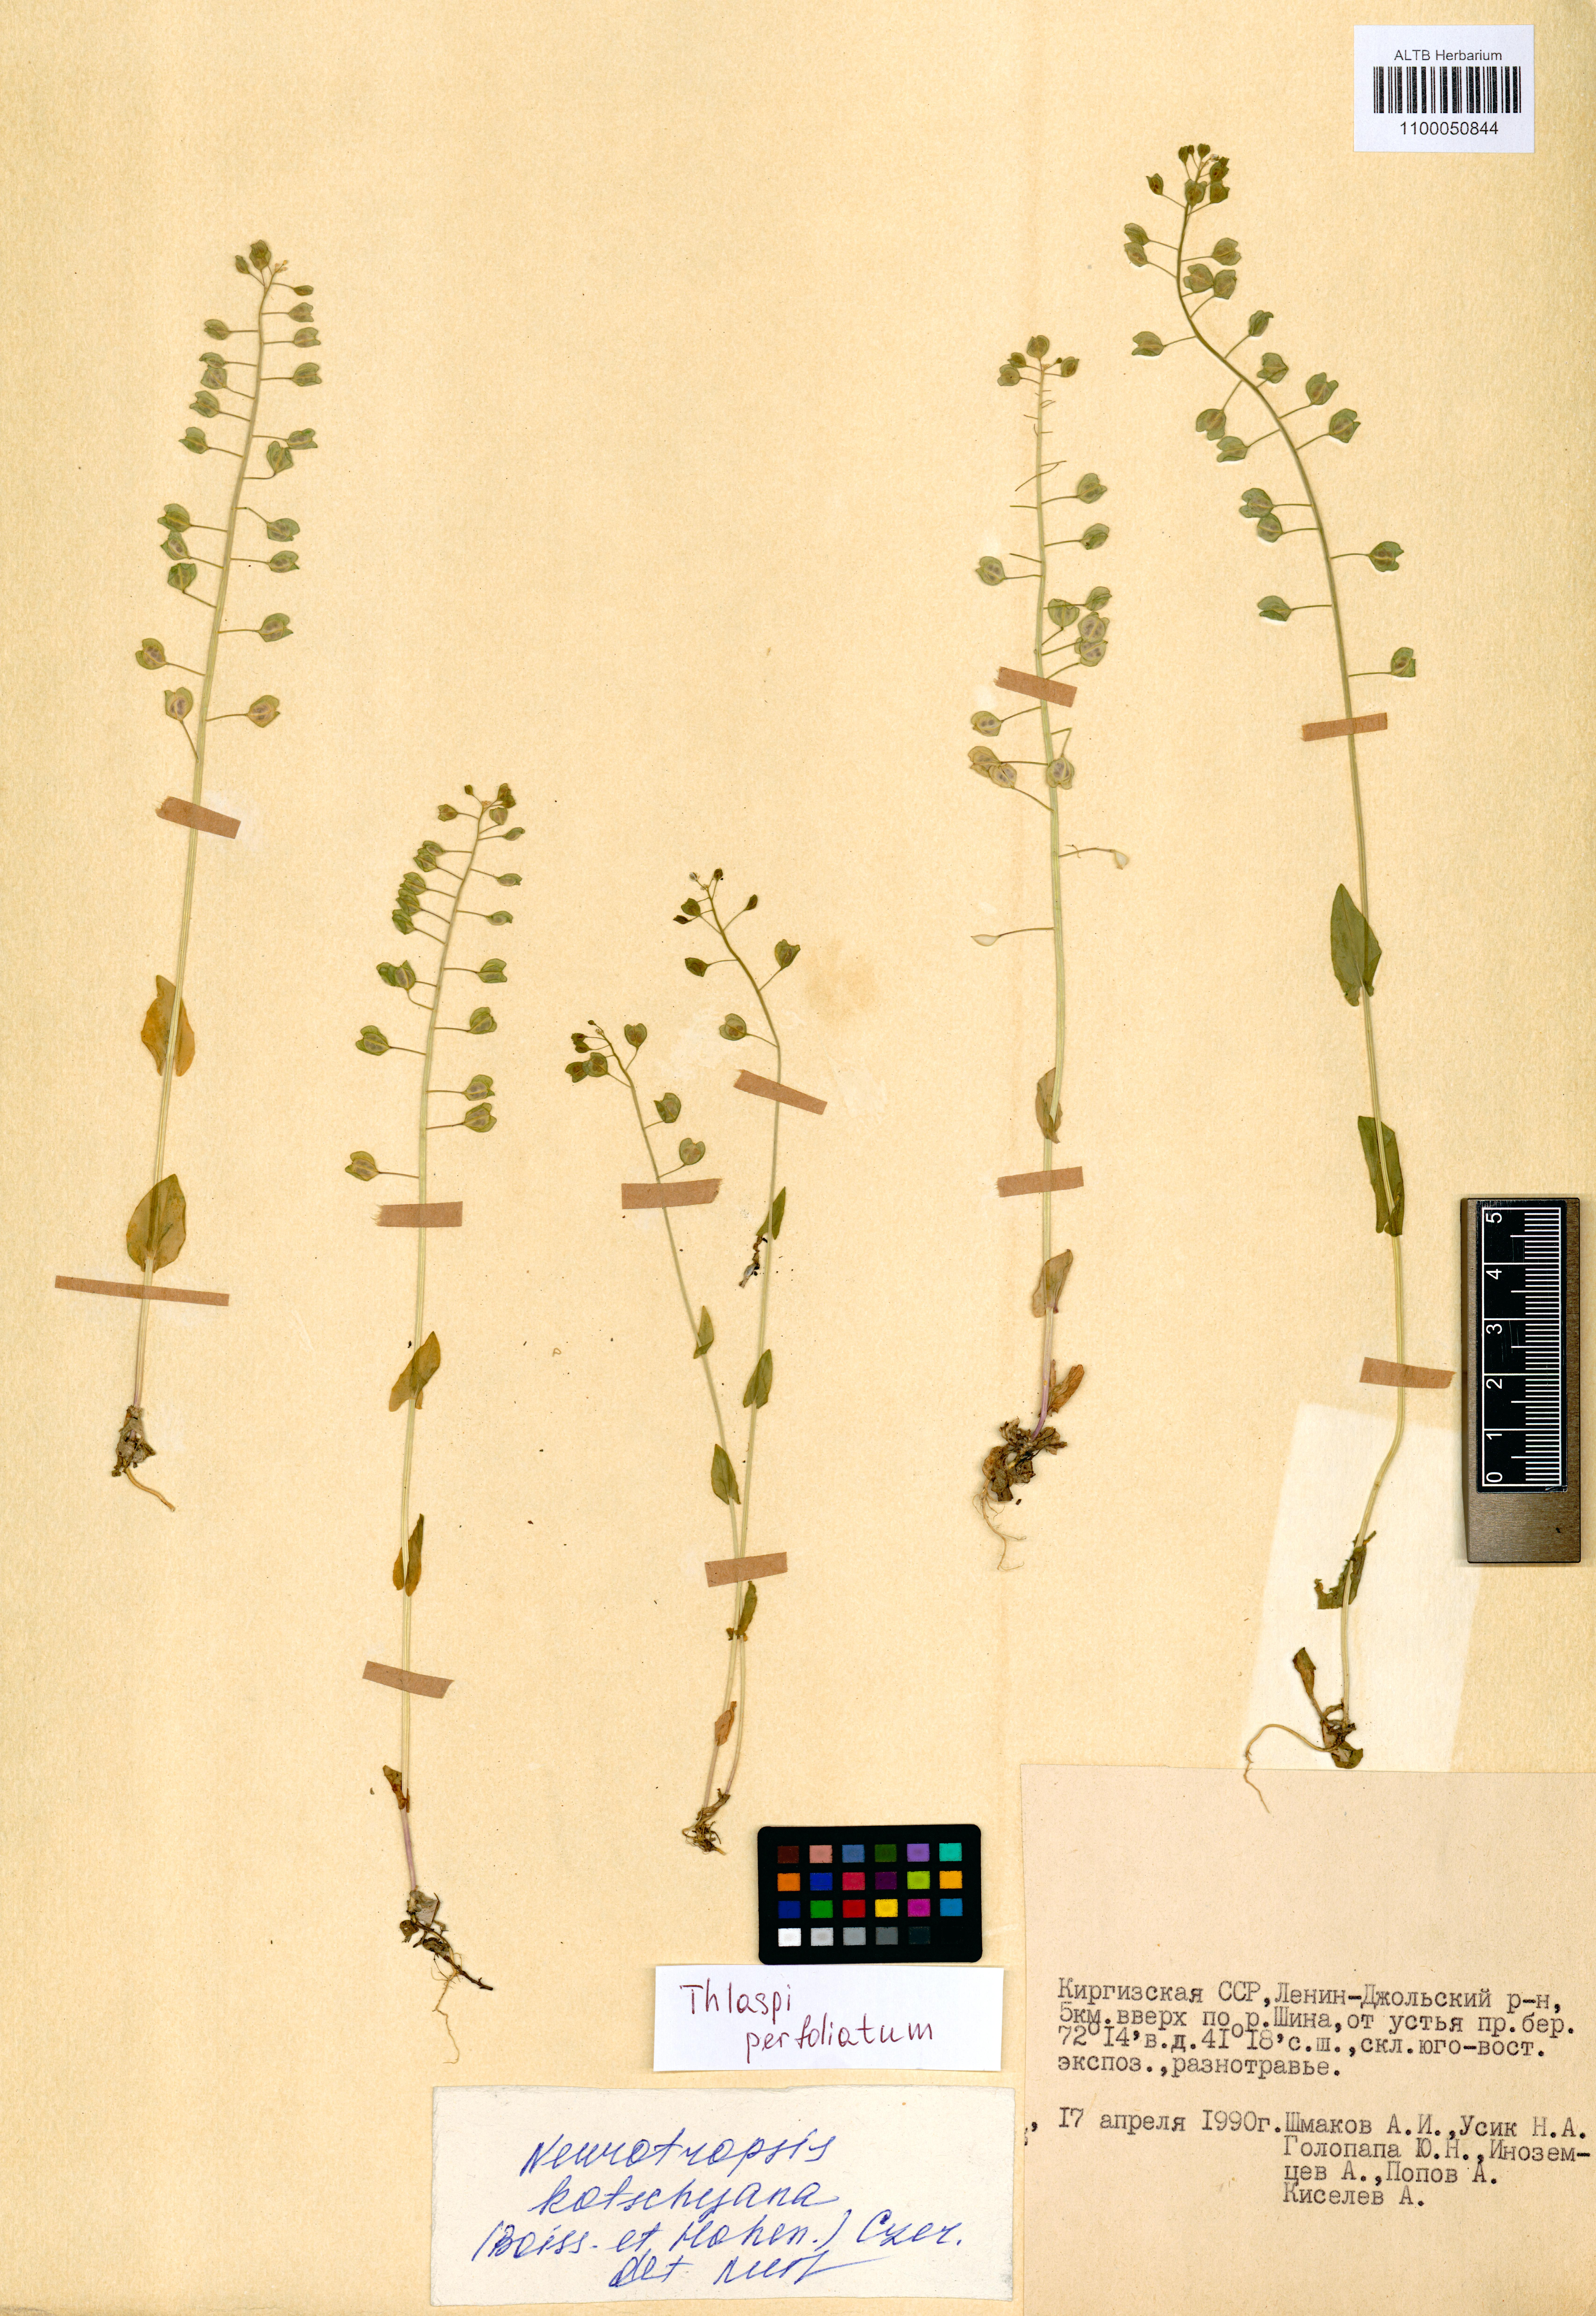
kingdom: Plantae
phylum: Tracheophyta
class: Magnoliopsida
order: Brassicales
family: Brassicaceae
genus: Noccaea
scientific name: Noccaea perfoliata
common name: Perfoliate pennycress
